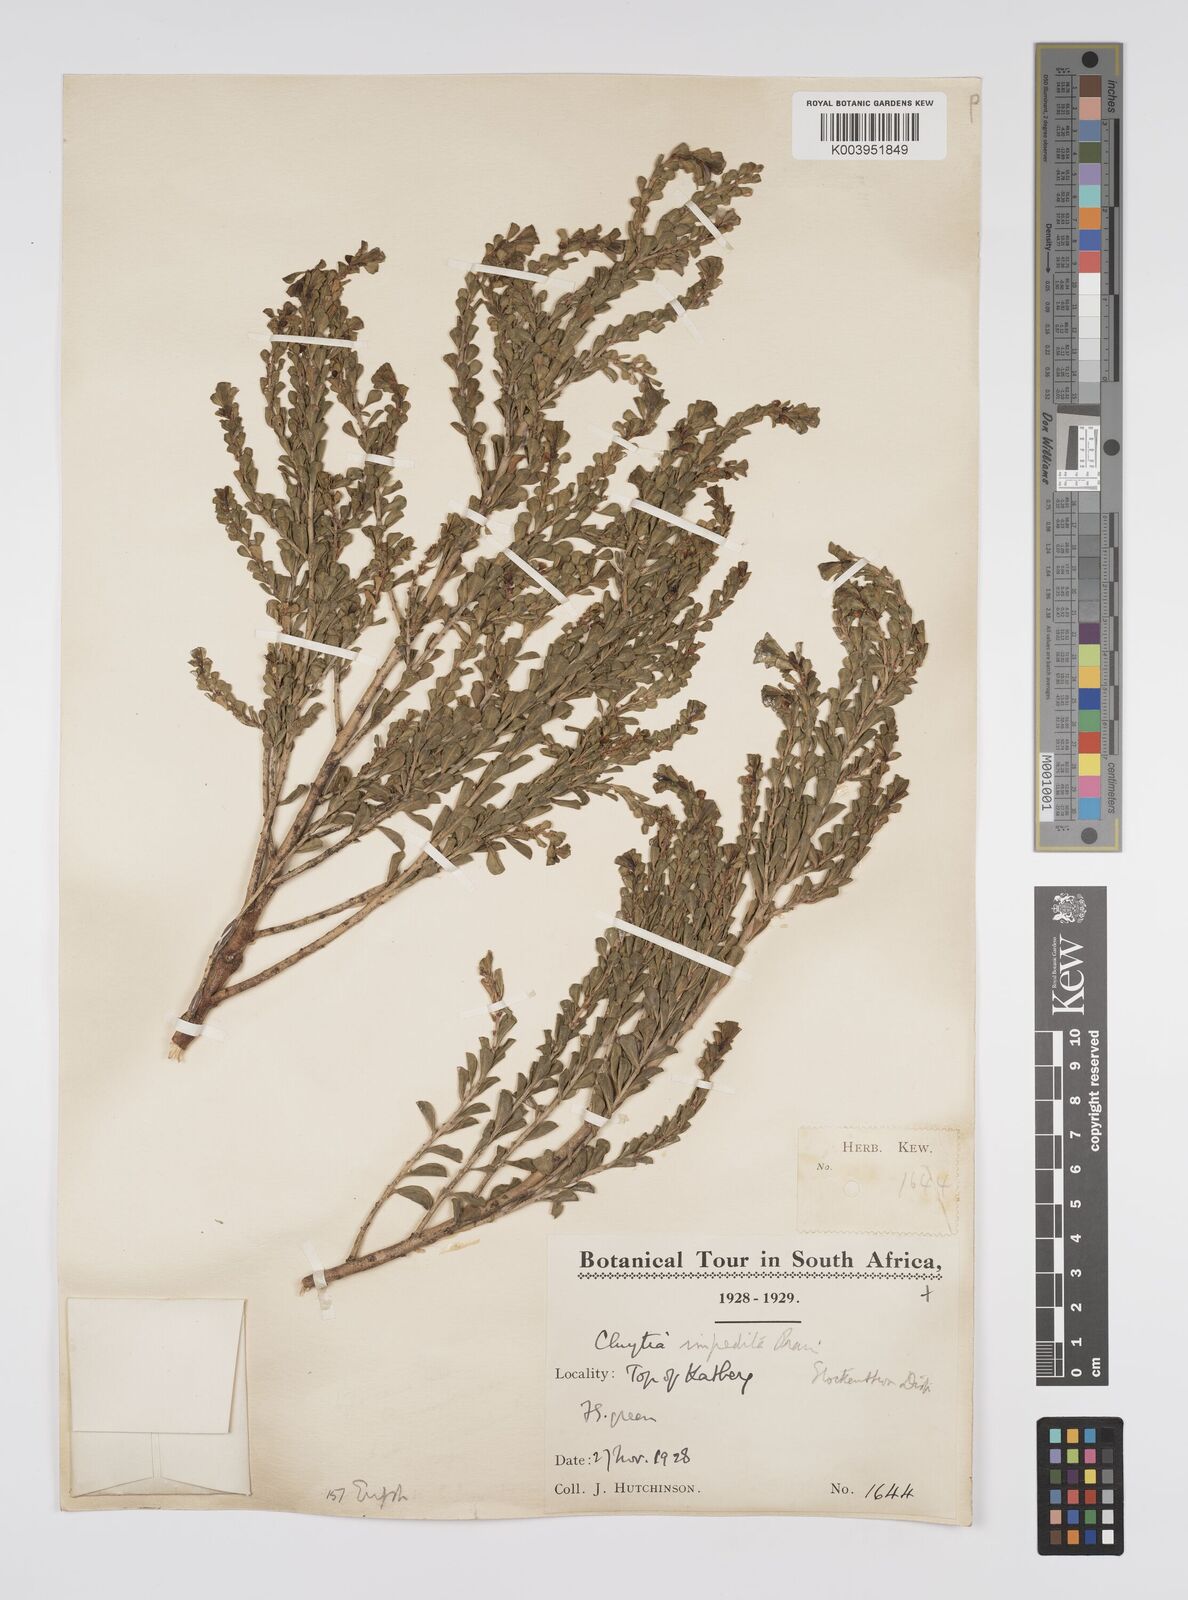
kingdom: Plantae
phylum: Tracheophyta
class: Magnoliopsida
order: Malpighiales
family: Peraceae
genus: Clutia
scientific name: Clutia impedita
